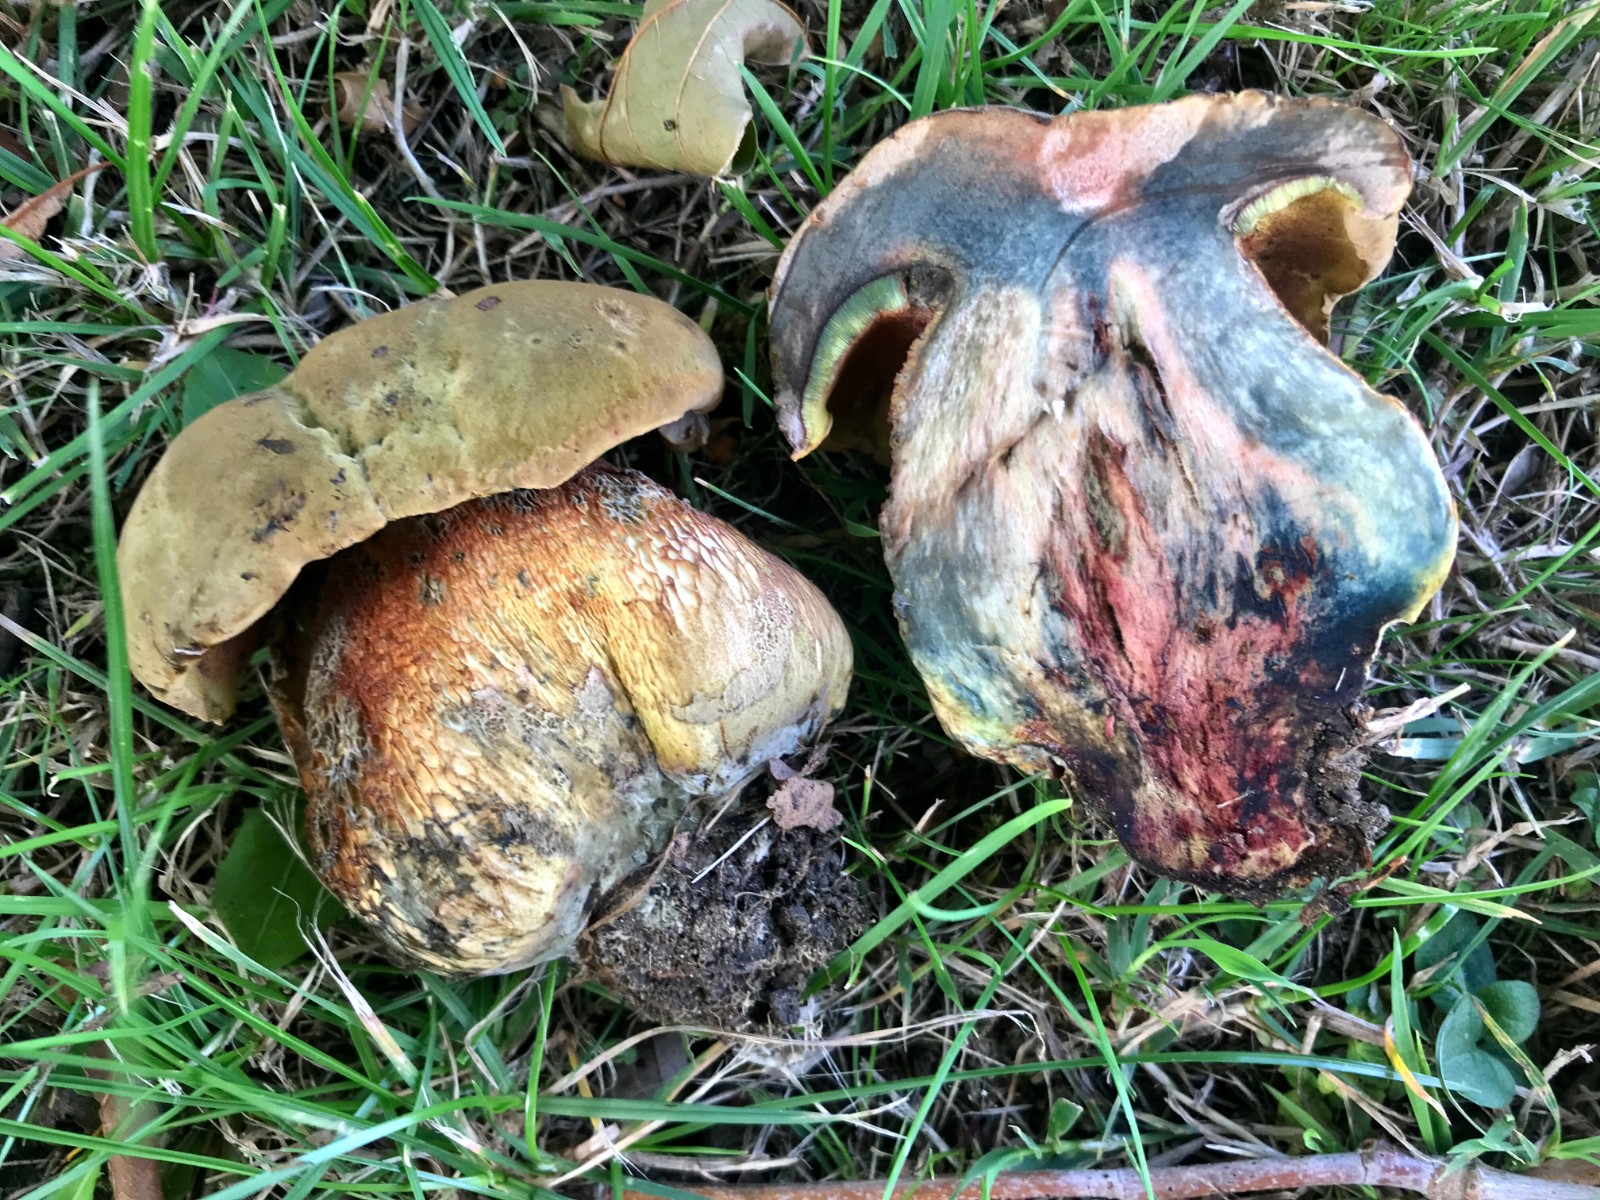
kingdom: Fungi
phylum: Basidiomycota
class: Agaricomycetes
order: Boletales
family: Boletaceae
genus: Suillellus
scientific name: Suillellus luridus
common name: netstokket indigorørhat
